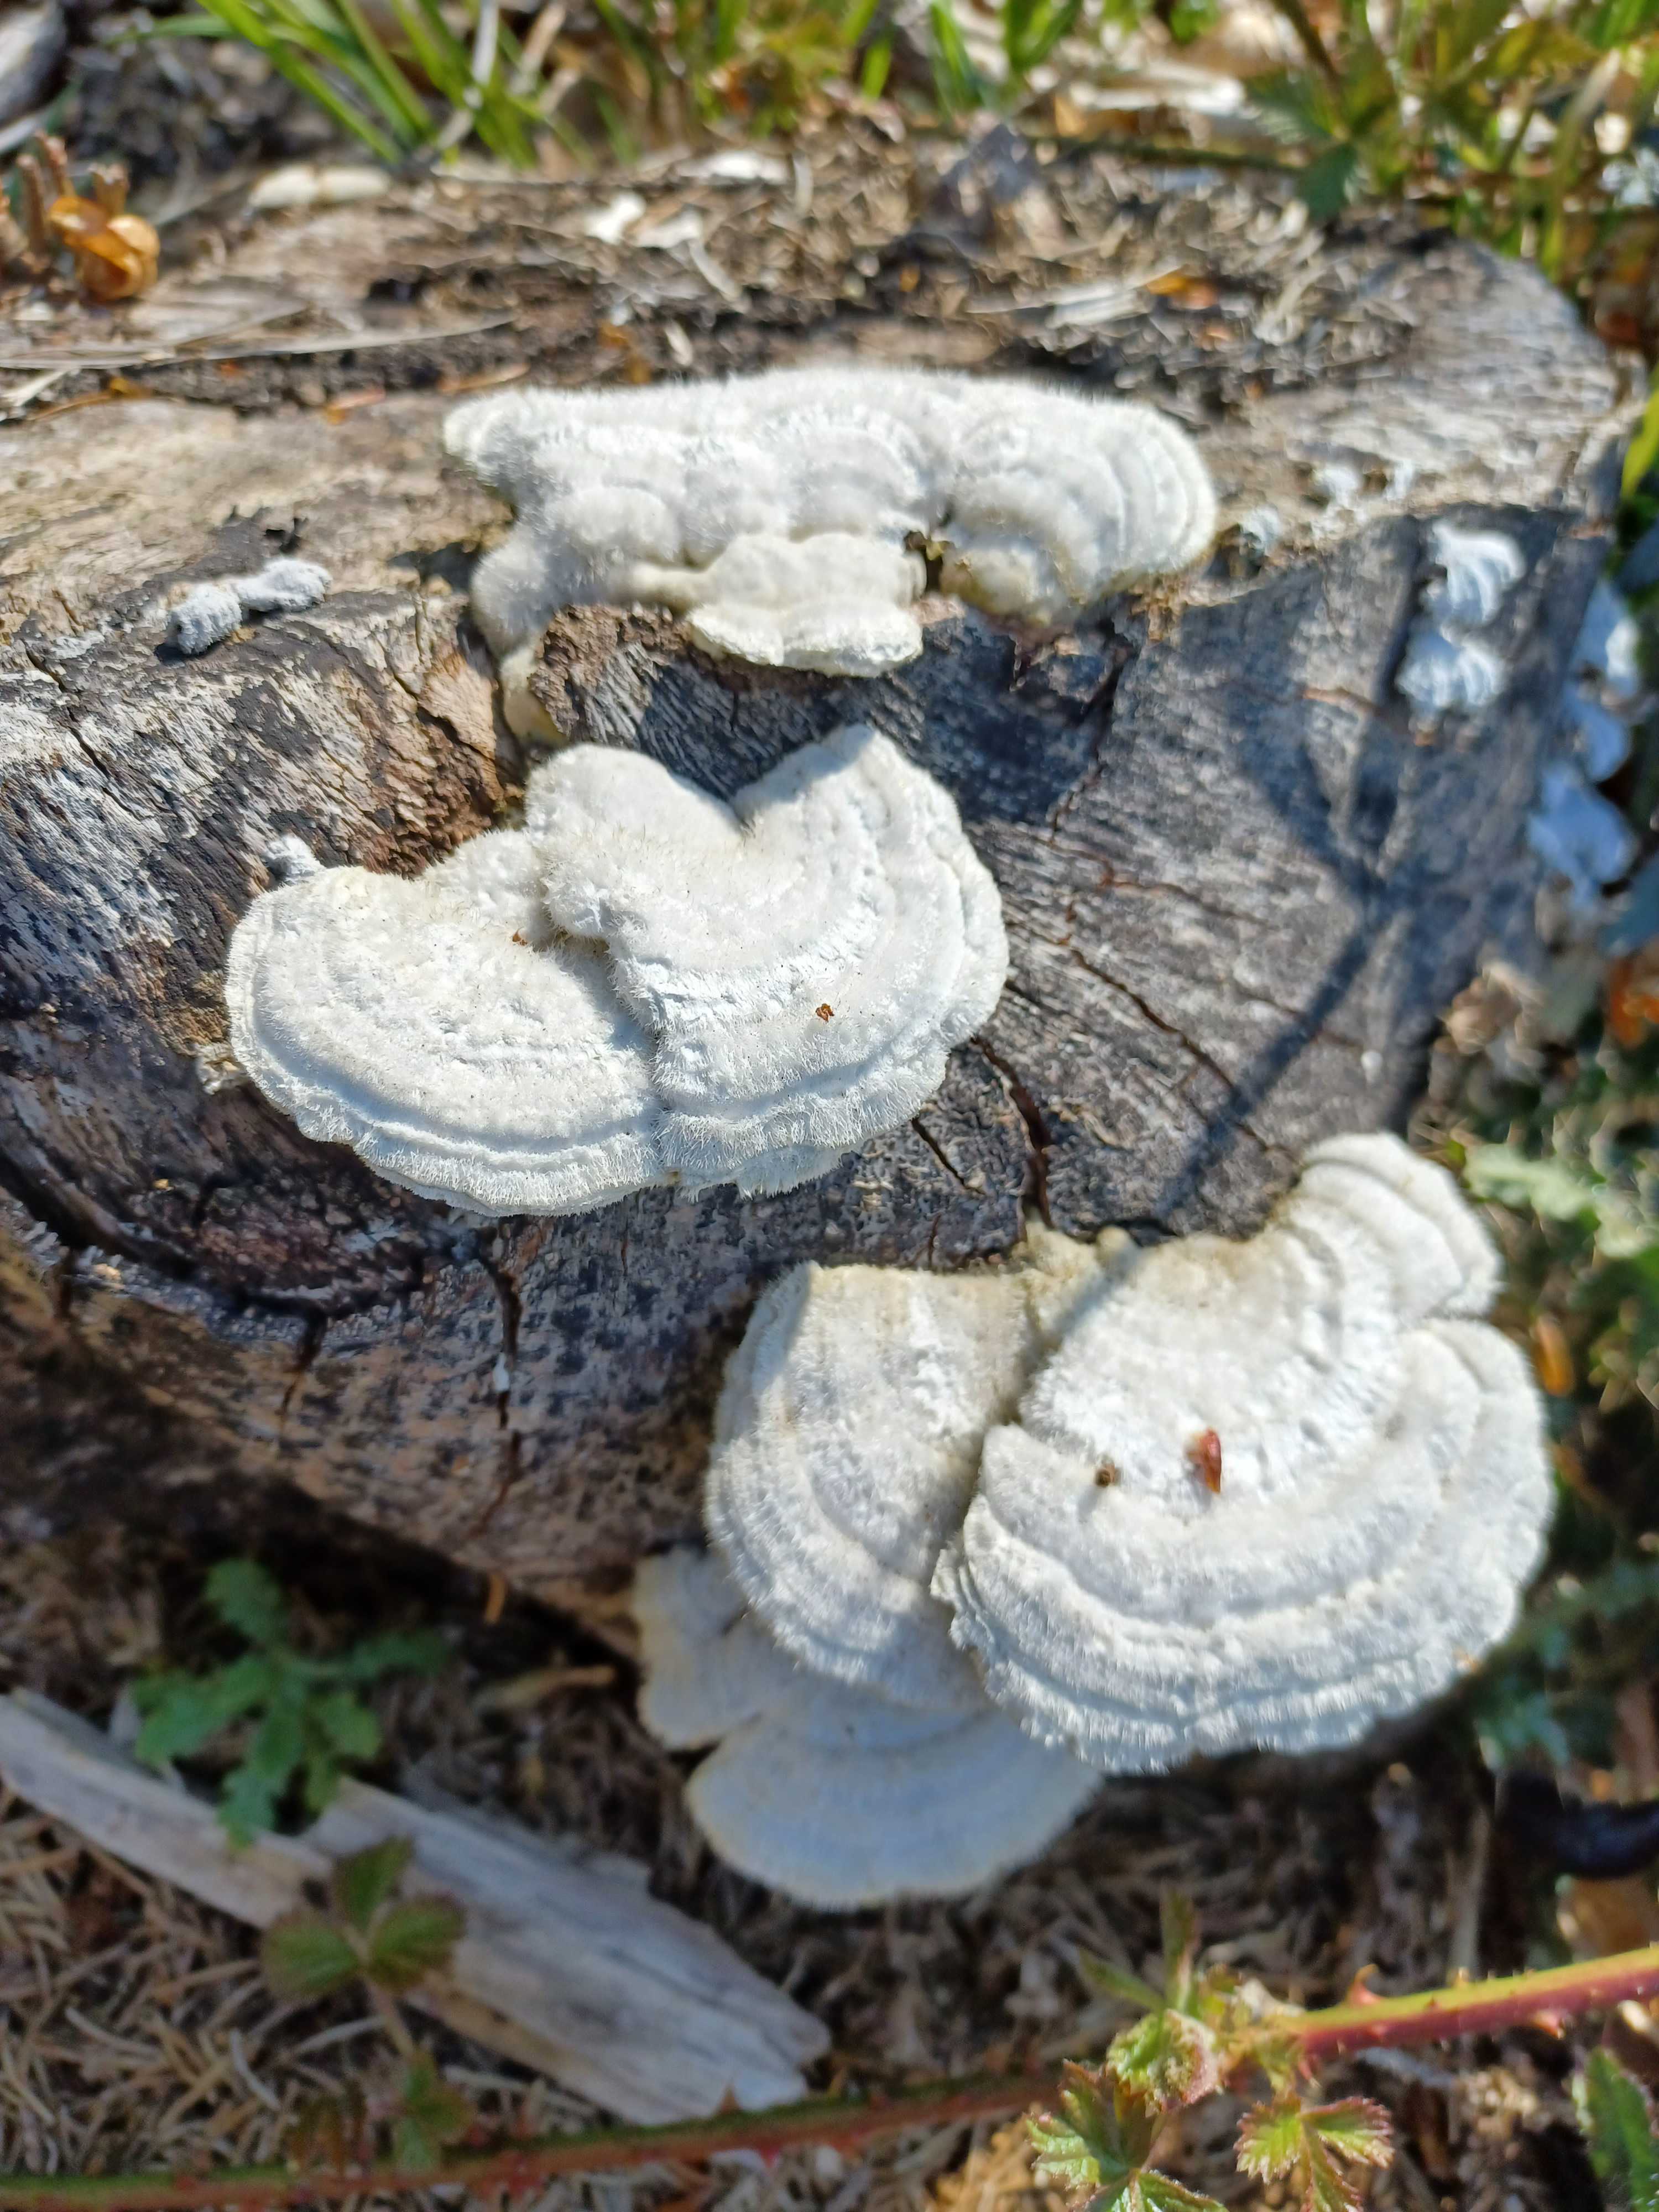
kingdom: Fungi
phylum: Basidiomycota
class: Agaricomycetes
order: Polyporales
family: Polyporaceae
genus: Trametes
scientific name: Trametes hirsuta
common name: håret læderporesvamp
